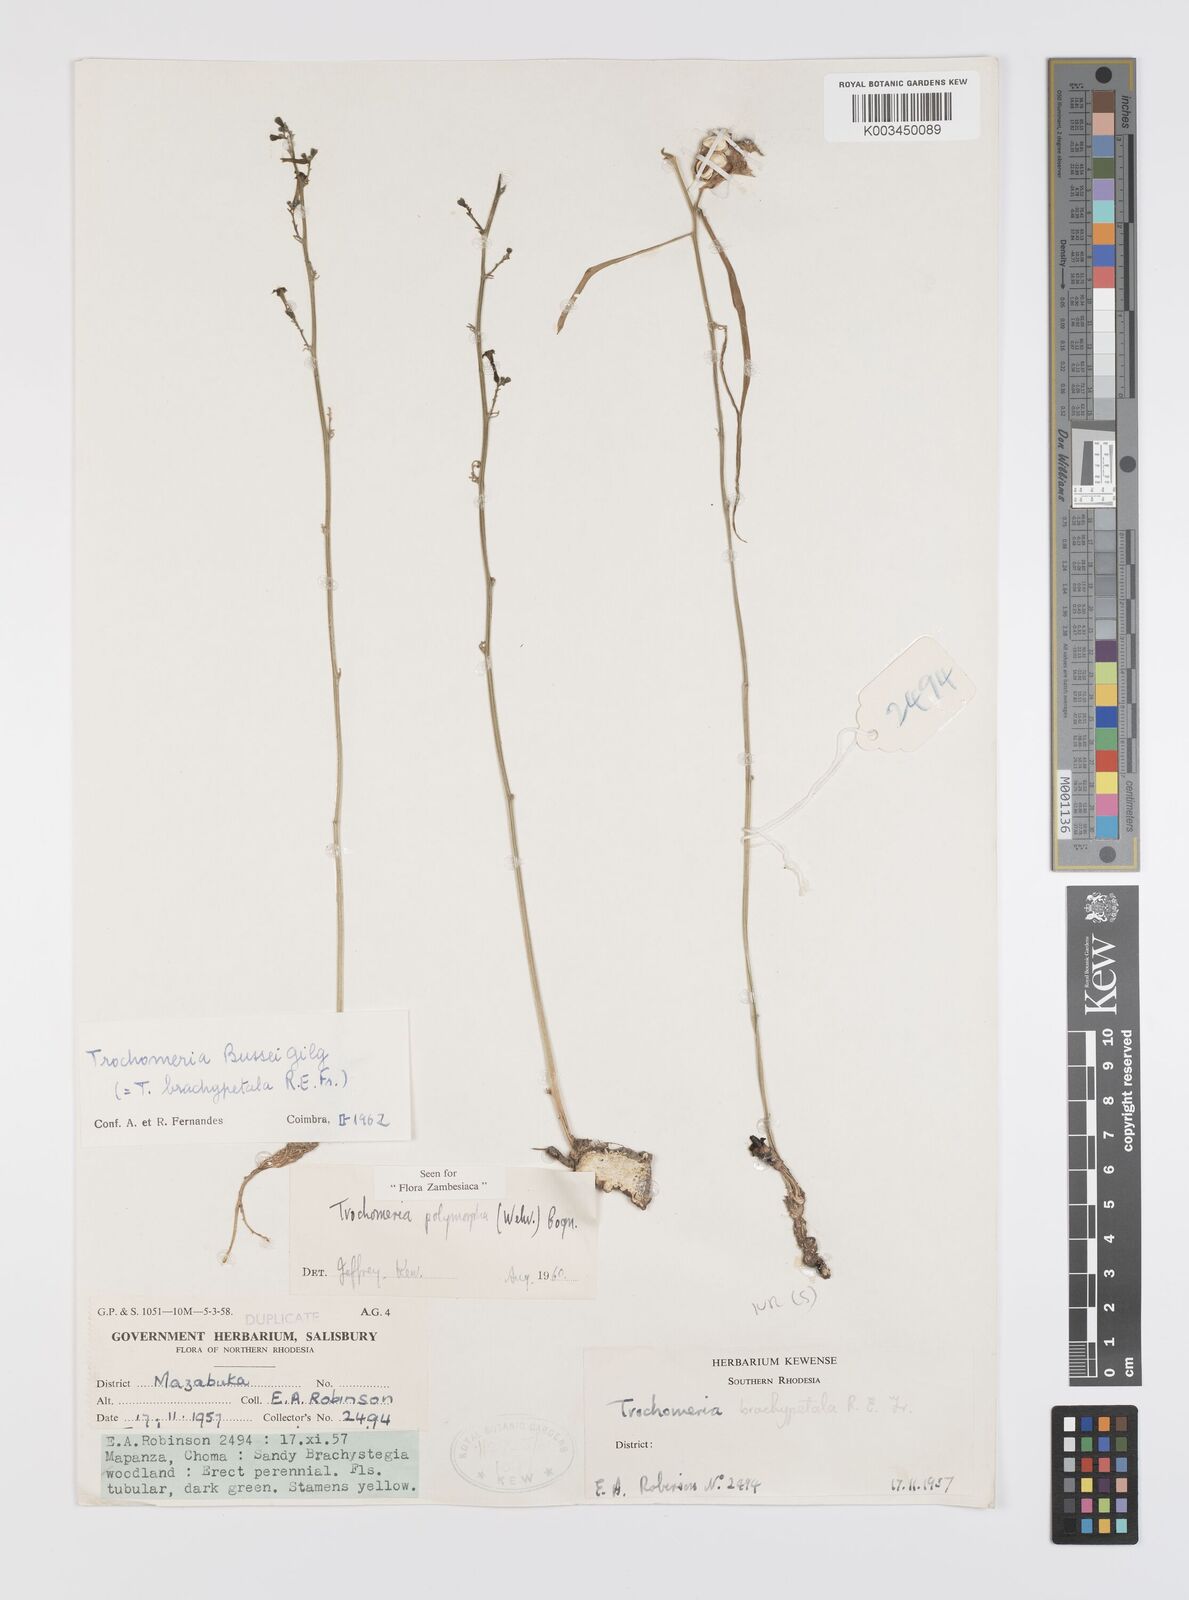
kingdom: Plantae
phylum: Tracheophyta
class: Magnoliopsida
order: Cucurbitales
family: Cucurbitaceae
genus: Trochomeria
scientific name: Trochomeria polymorpha
